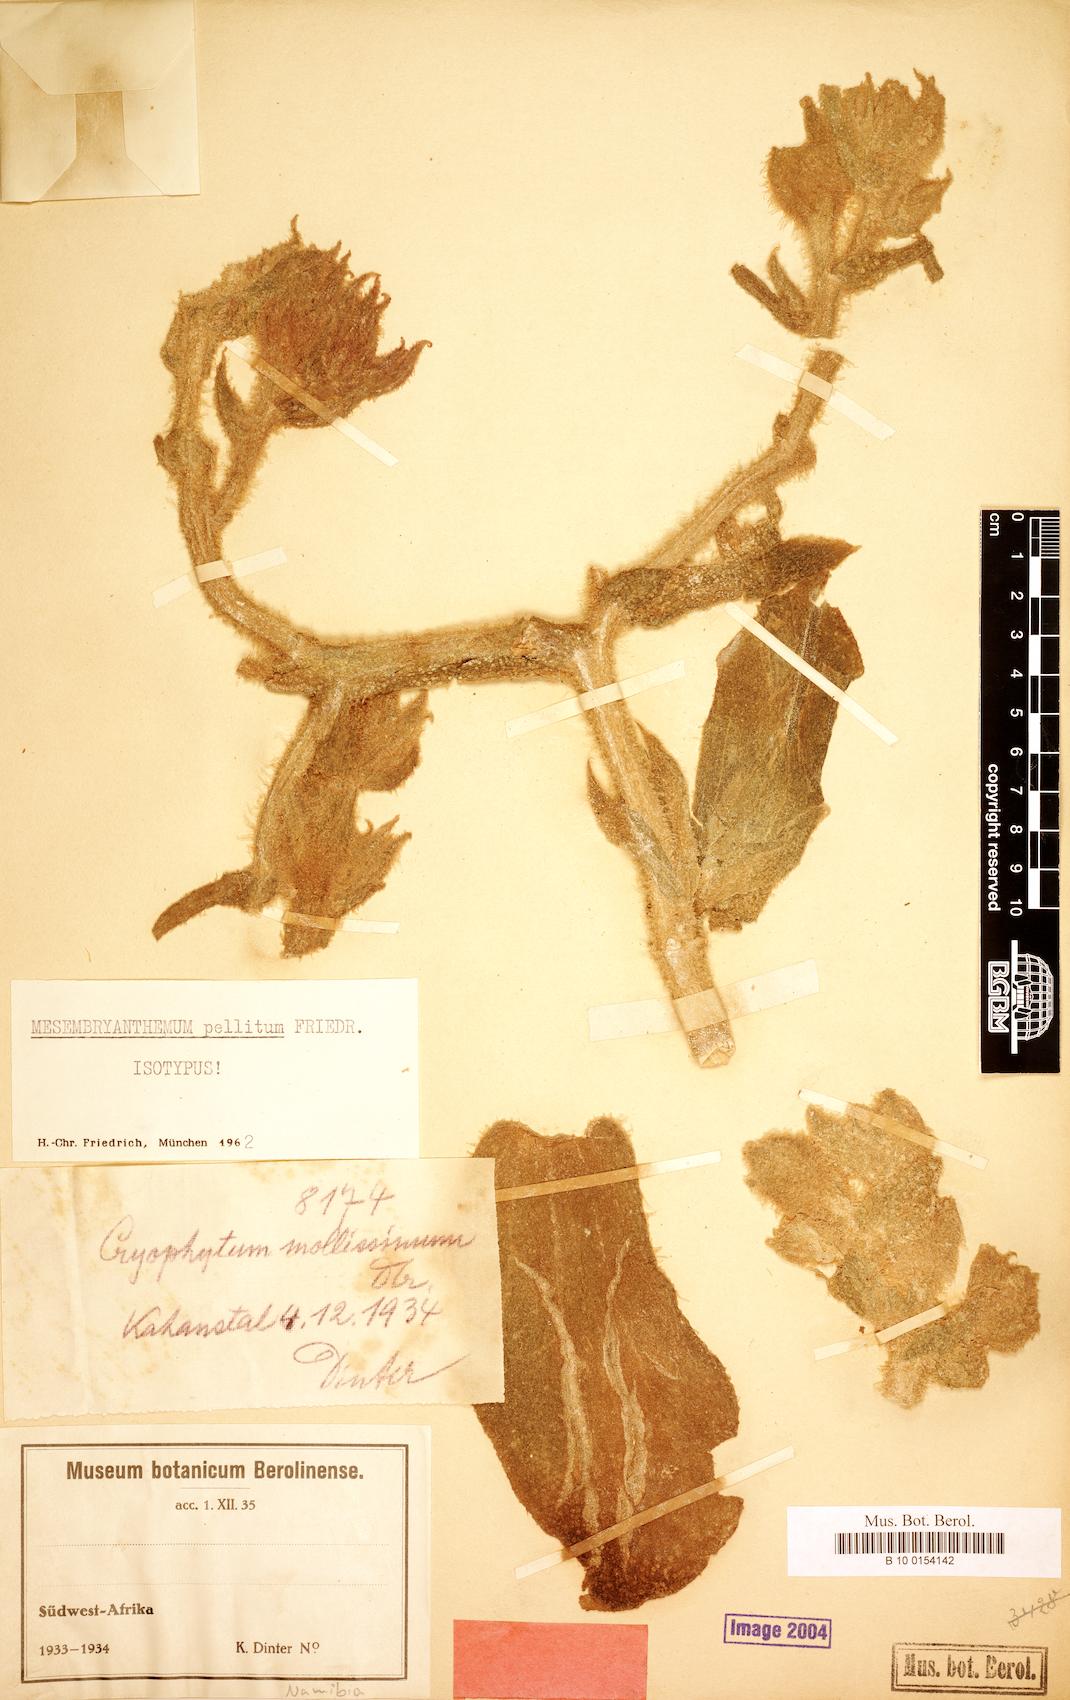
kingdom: Plantae
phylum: Tracheophyta
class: Magnoliopsida
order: Caryophyllales
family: Aizoaceae
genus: Mesembryanthemum
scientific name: Mesembryanthemum pellitum
